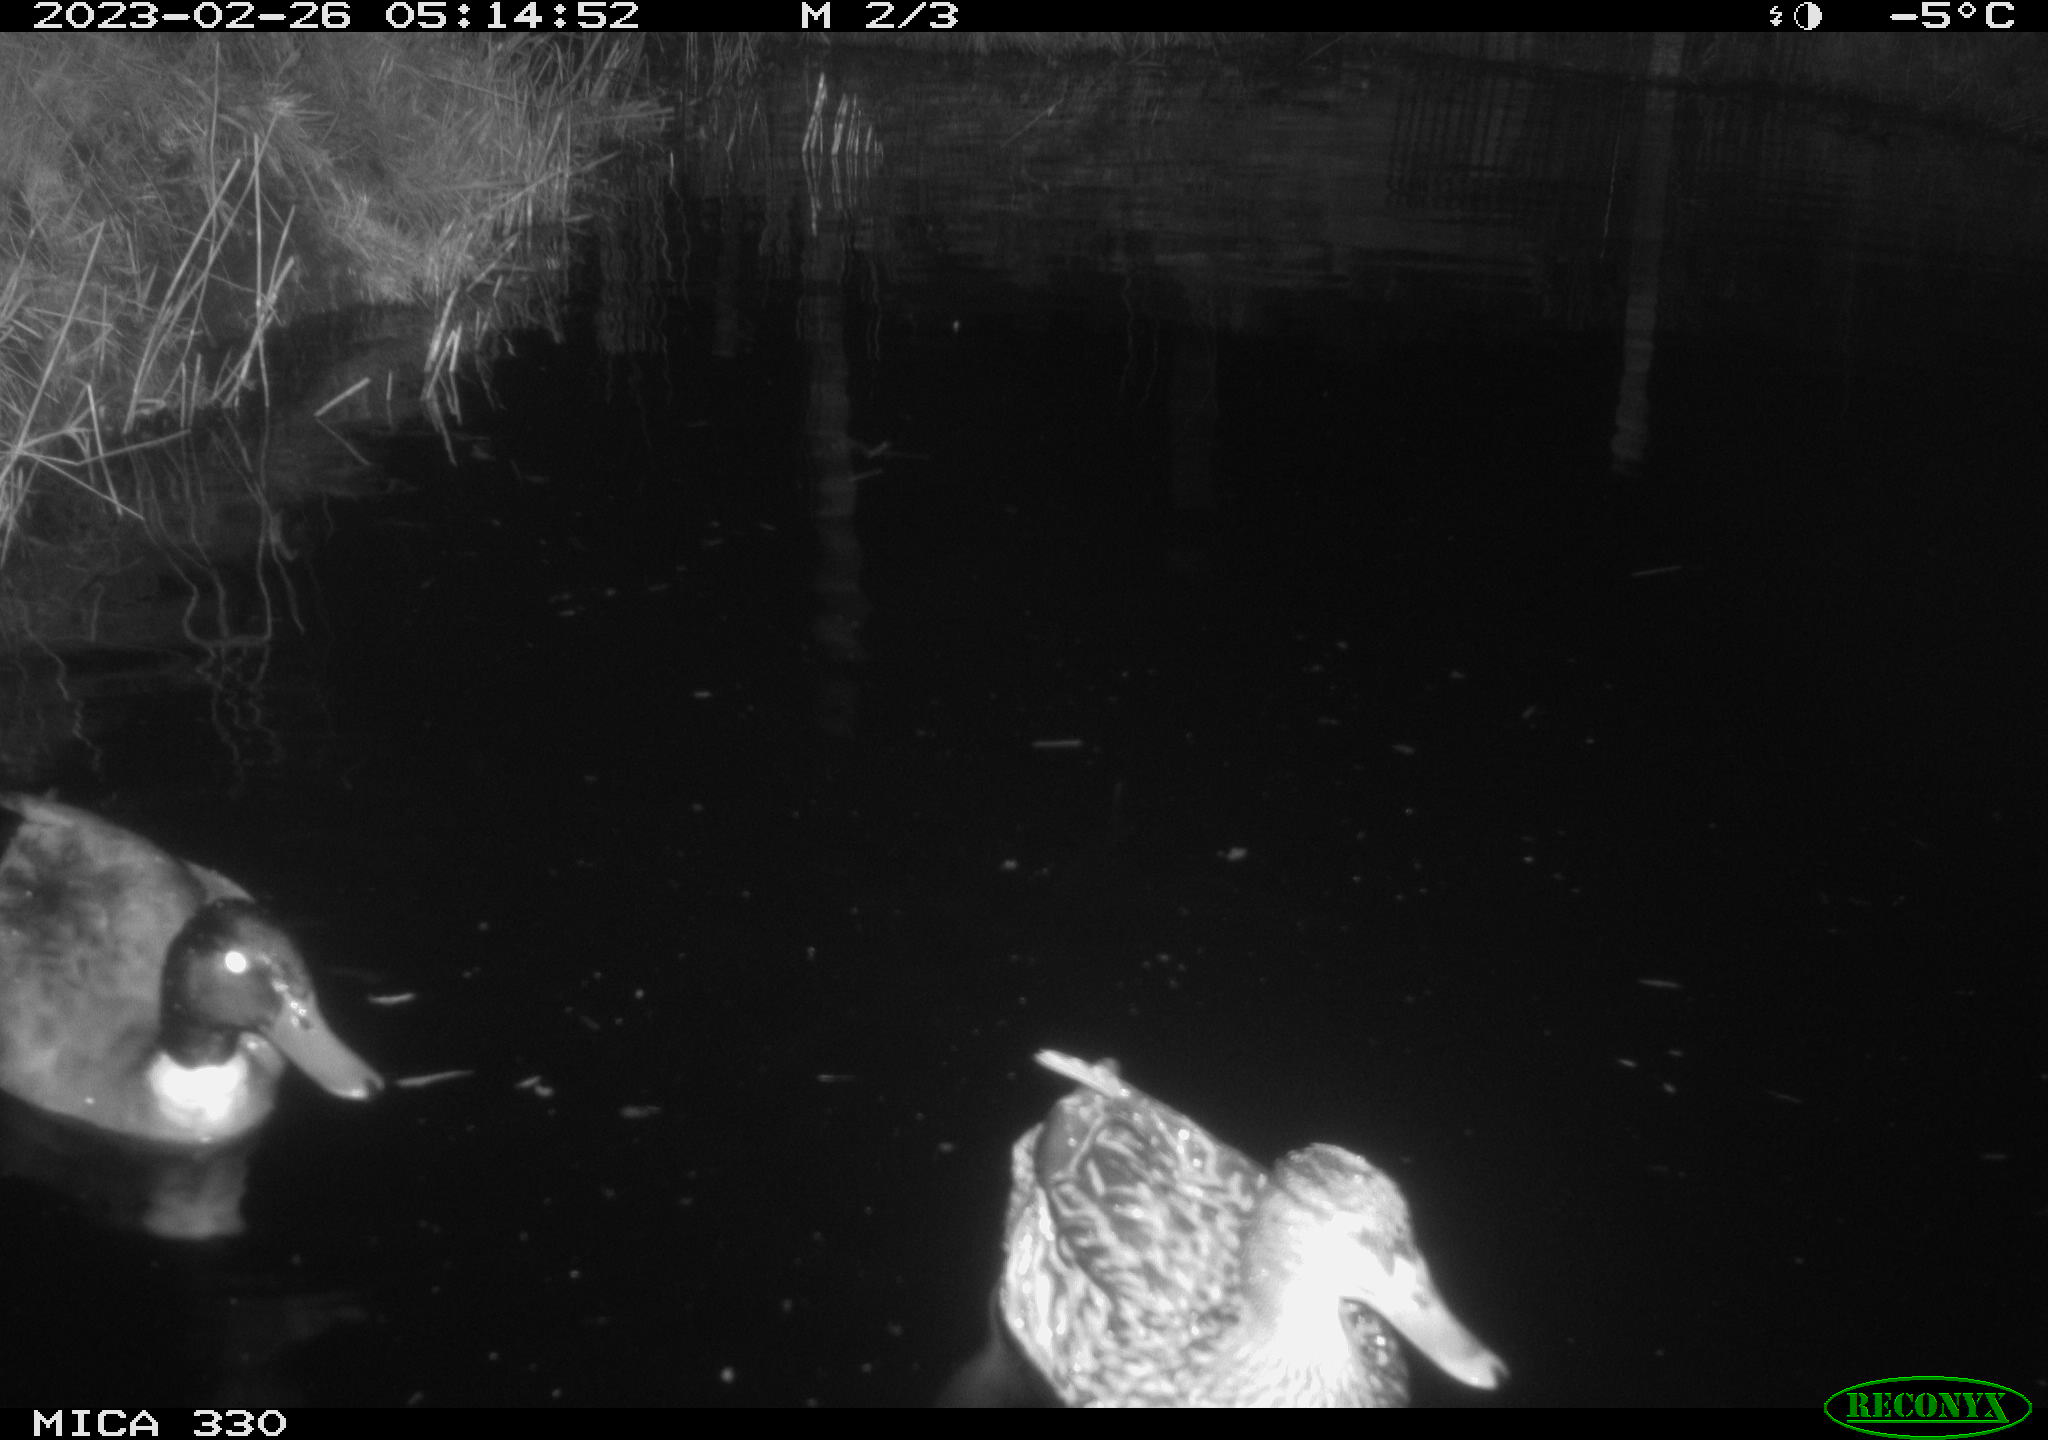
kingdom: Animalia
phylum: Chordata
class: Aves
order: Anseriformes
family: Anatidae
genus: Anas
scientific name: Anas
